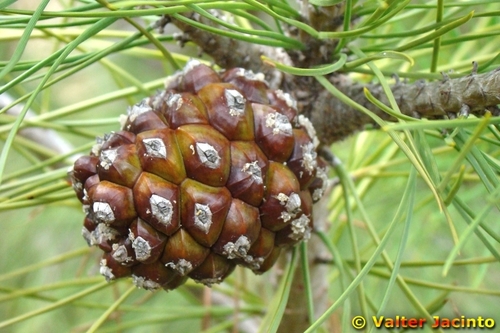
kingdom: Plantae
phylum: Tracheophyta
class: Pinopsida
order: Pinales
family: Pinaceae
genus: Pinus
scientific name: Pinus pinea
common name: Italian stone pine
